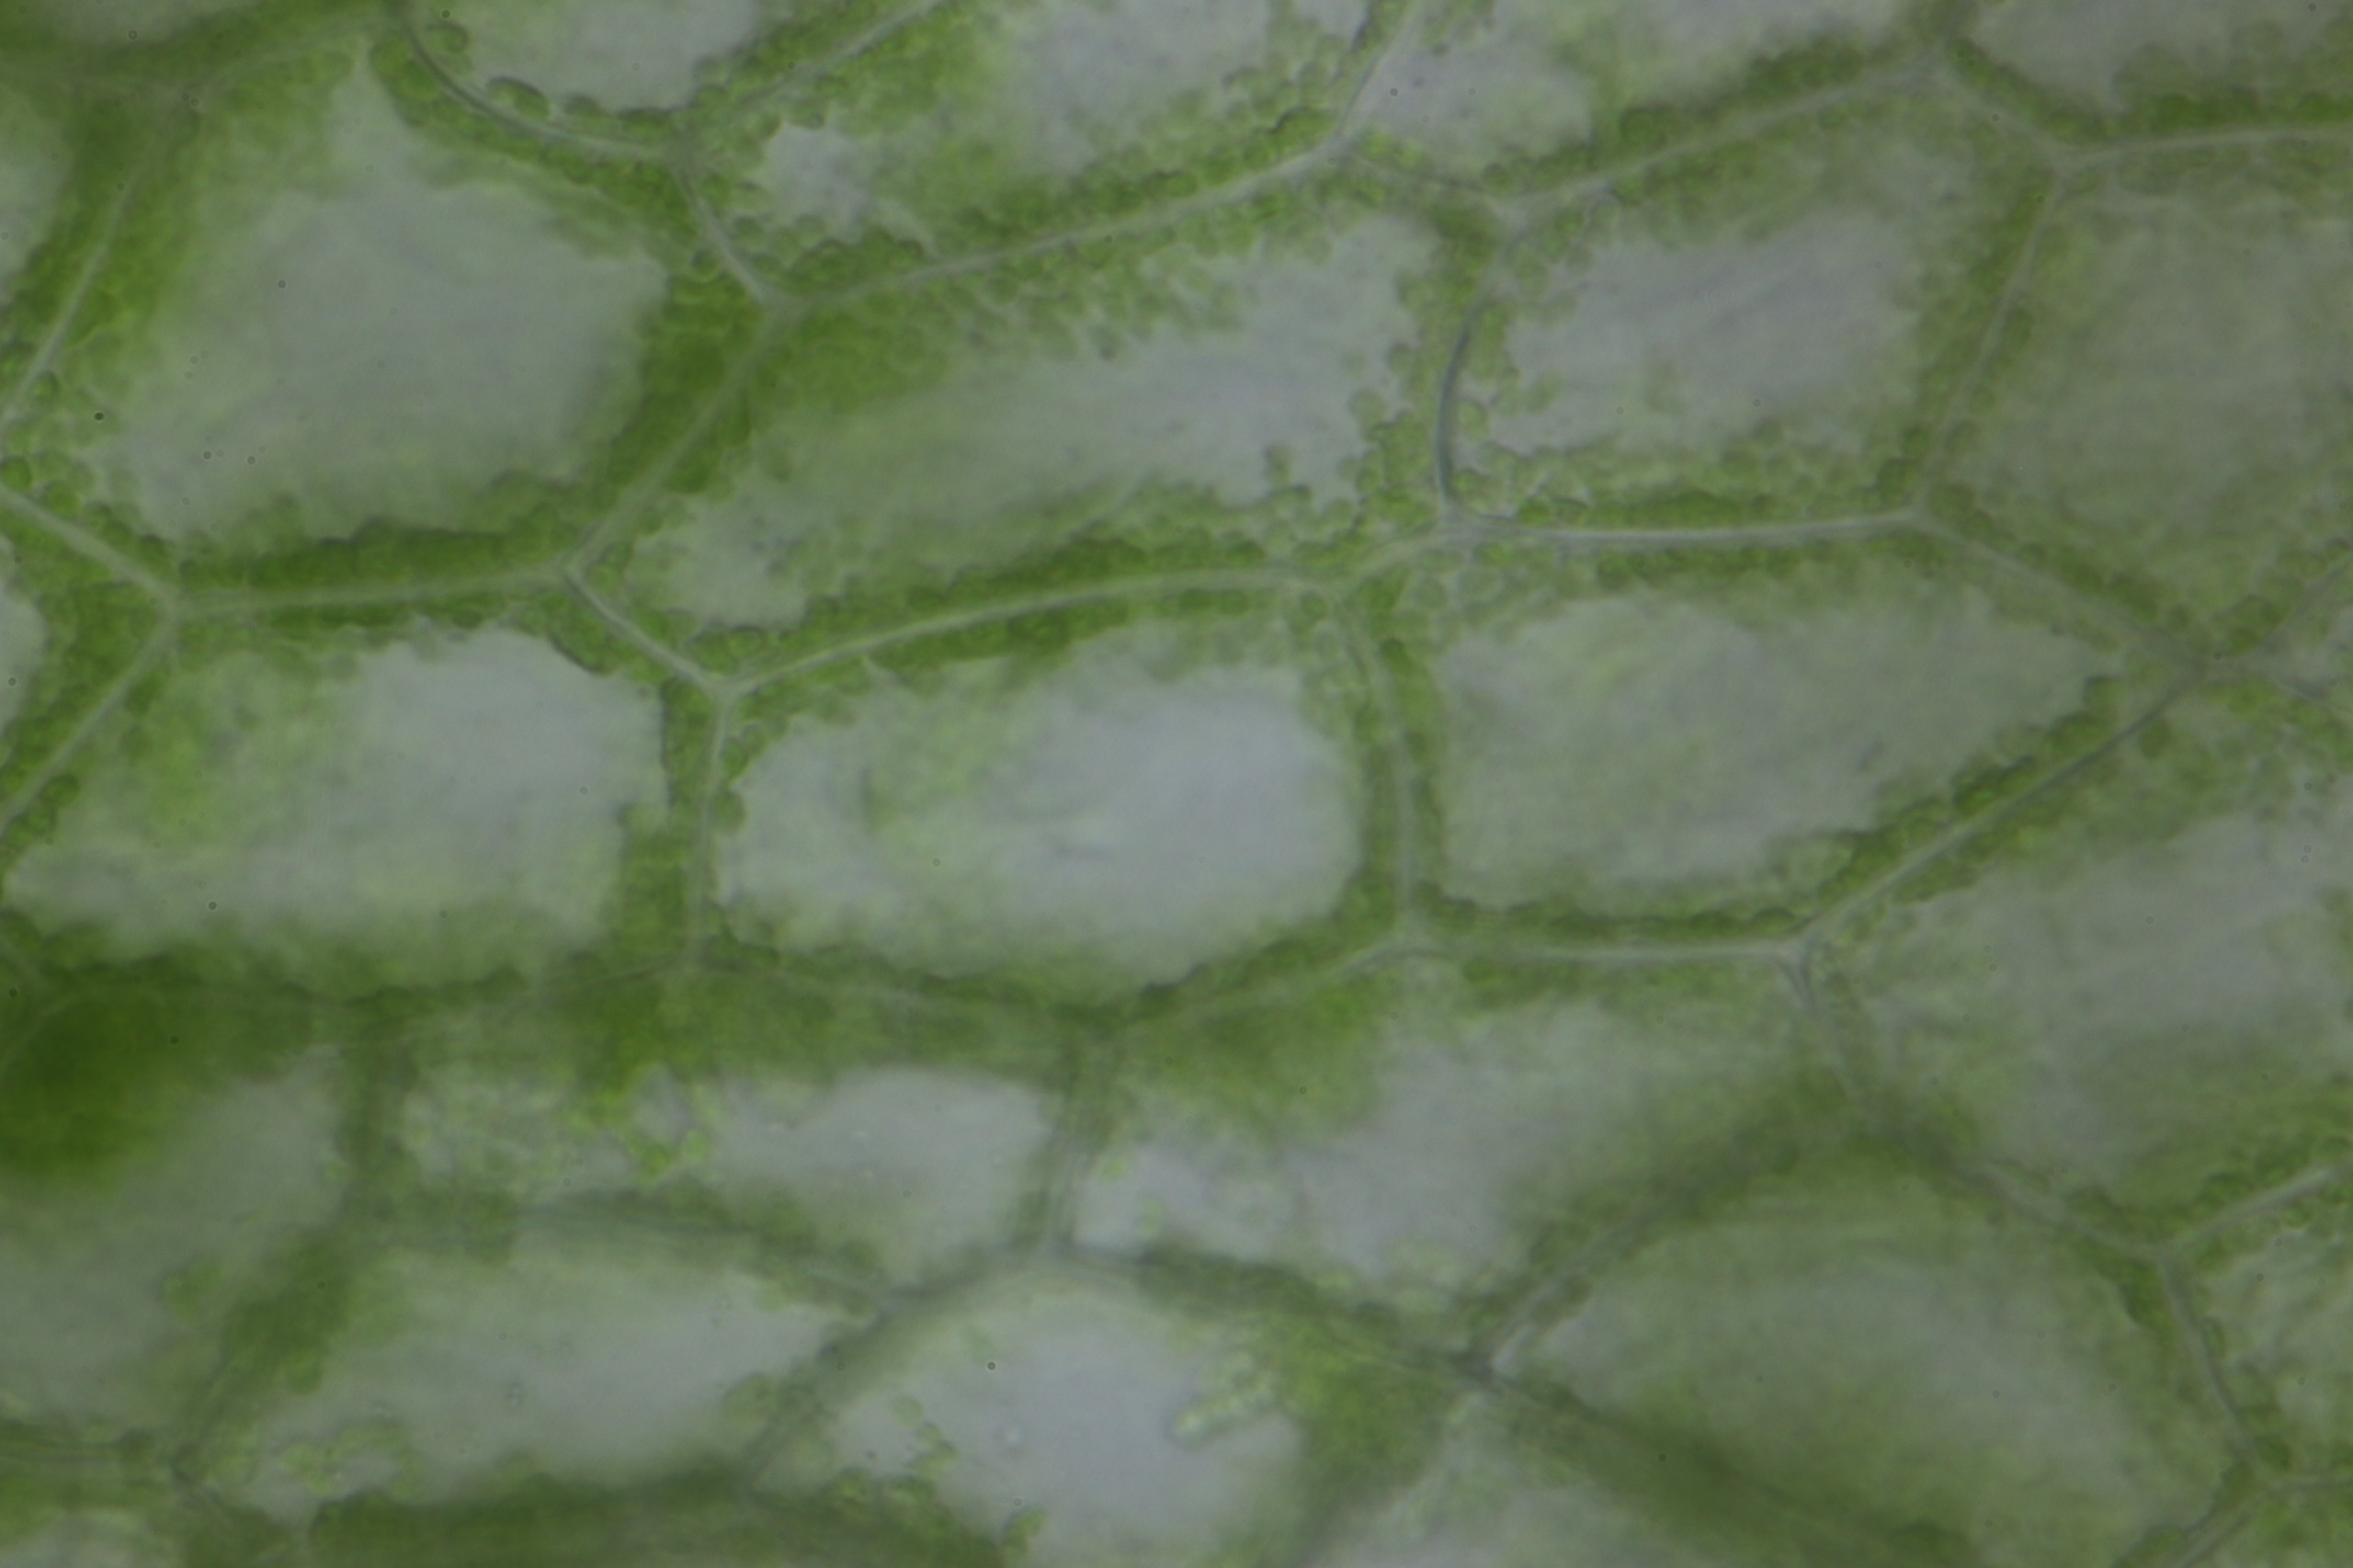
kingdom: Plantae
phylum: Marchantiophyta
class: Jungermanniopsida
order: Metzgeriales
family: Aneuraceae
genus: Riccardia
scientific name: Riccardia latifrons
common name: Bred ribbeløs
